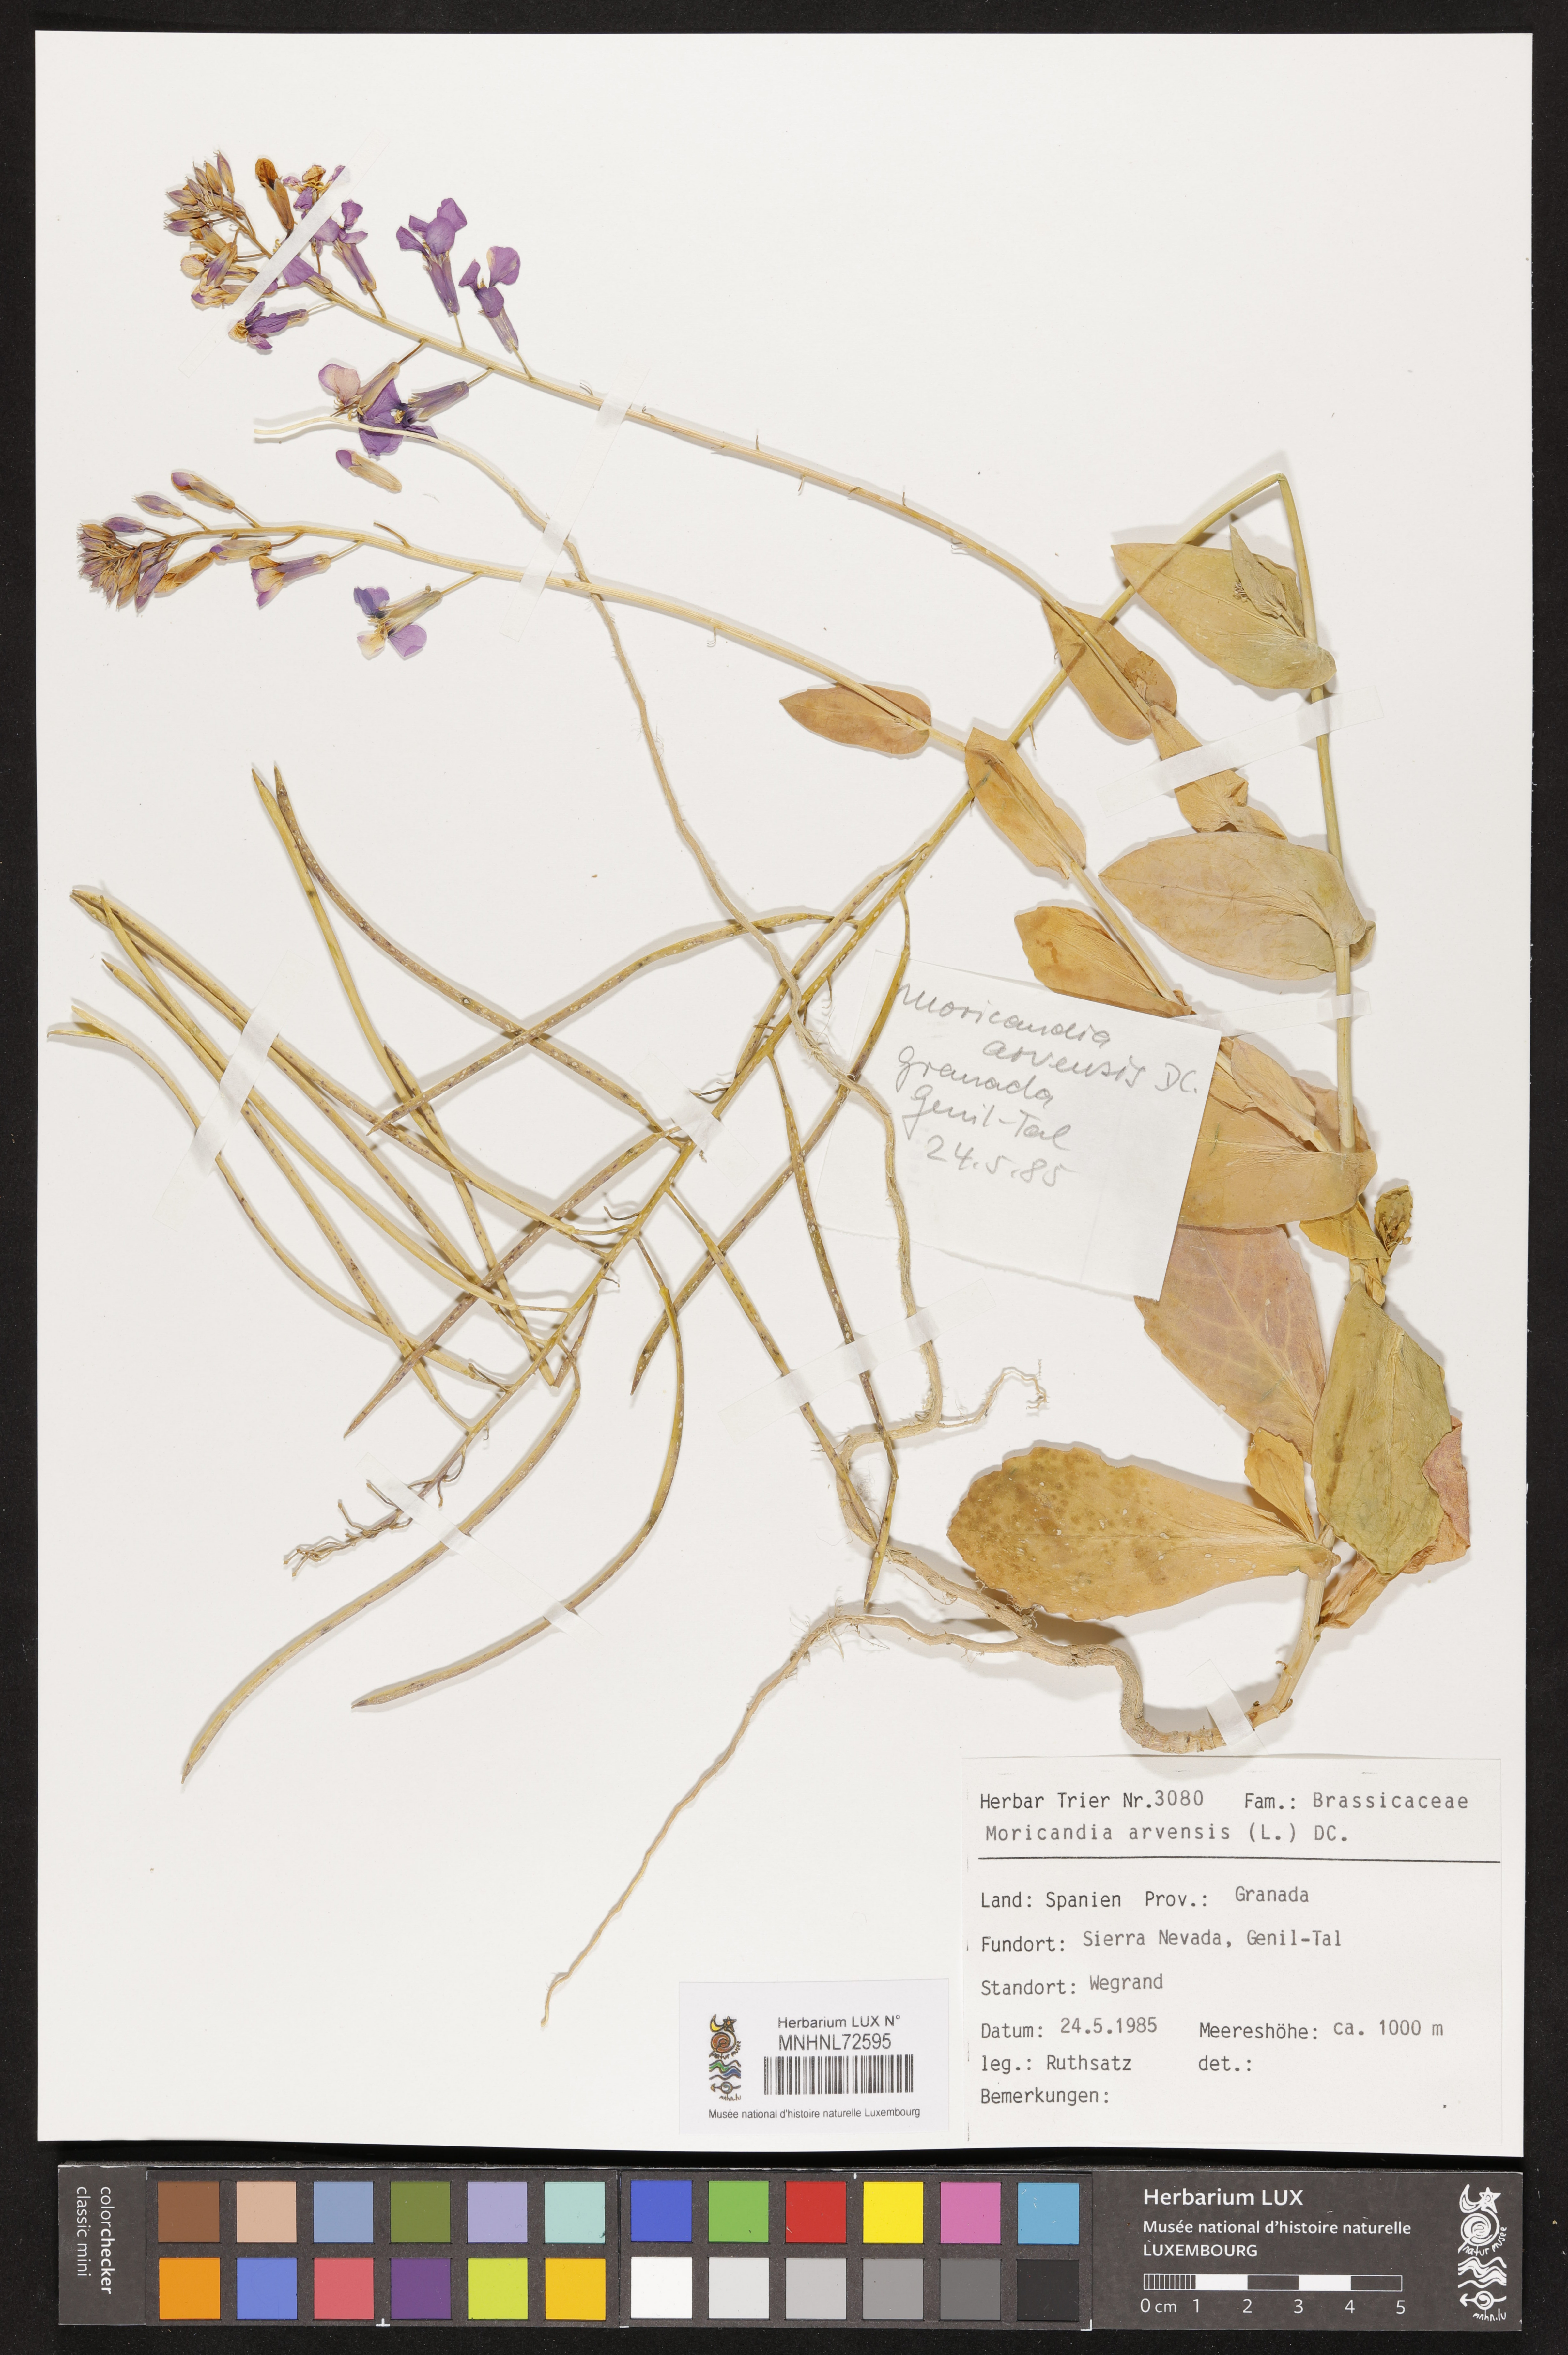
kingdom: Plantae
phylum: Tracheophyta
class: Magnoliopsida
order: Brassicales
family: Brassicaceae
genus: Moricandia
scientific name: Moricandia arvensis
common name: Purple mistress
